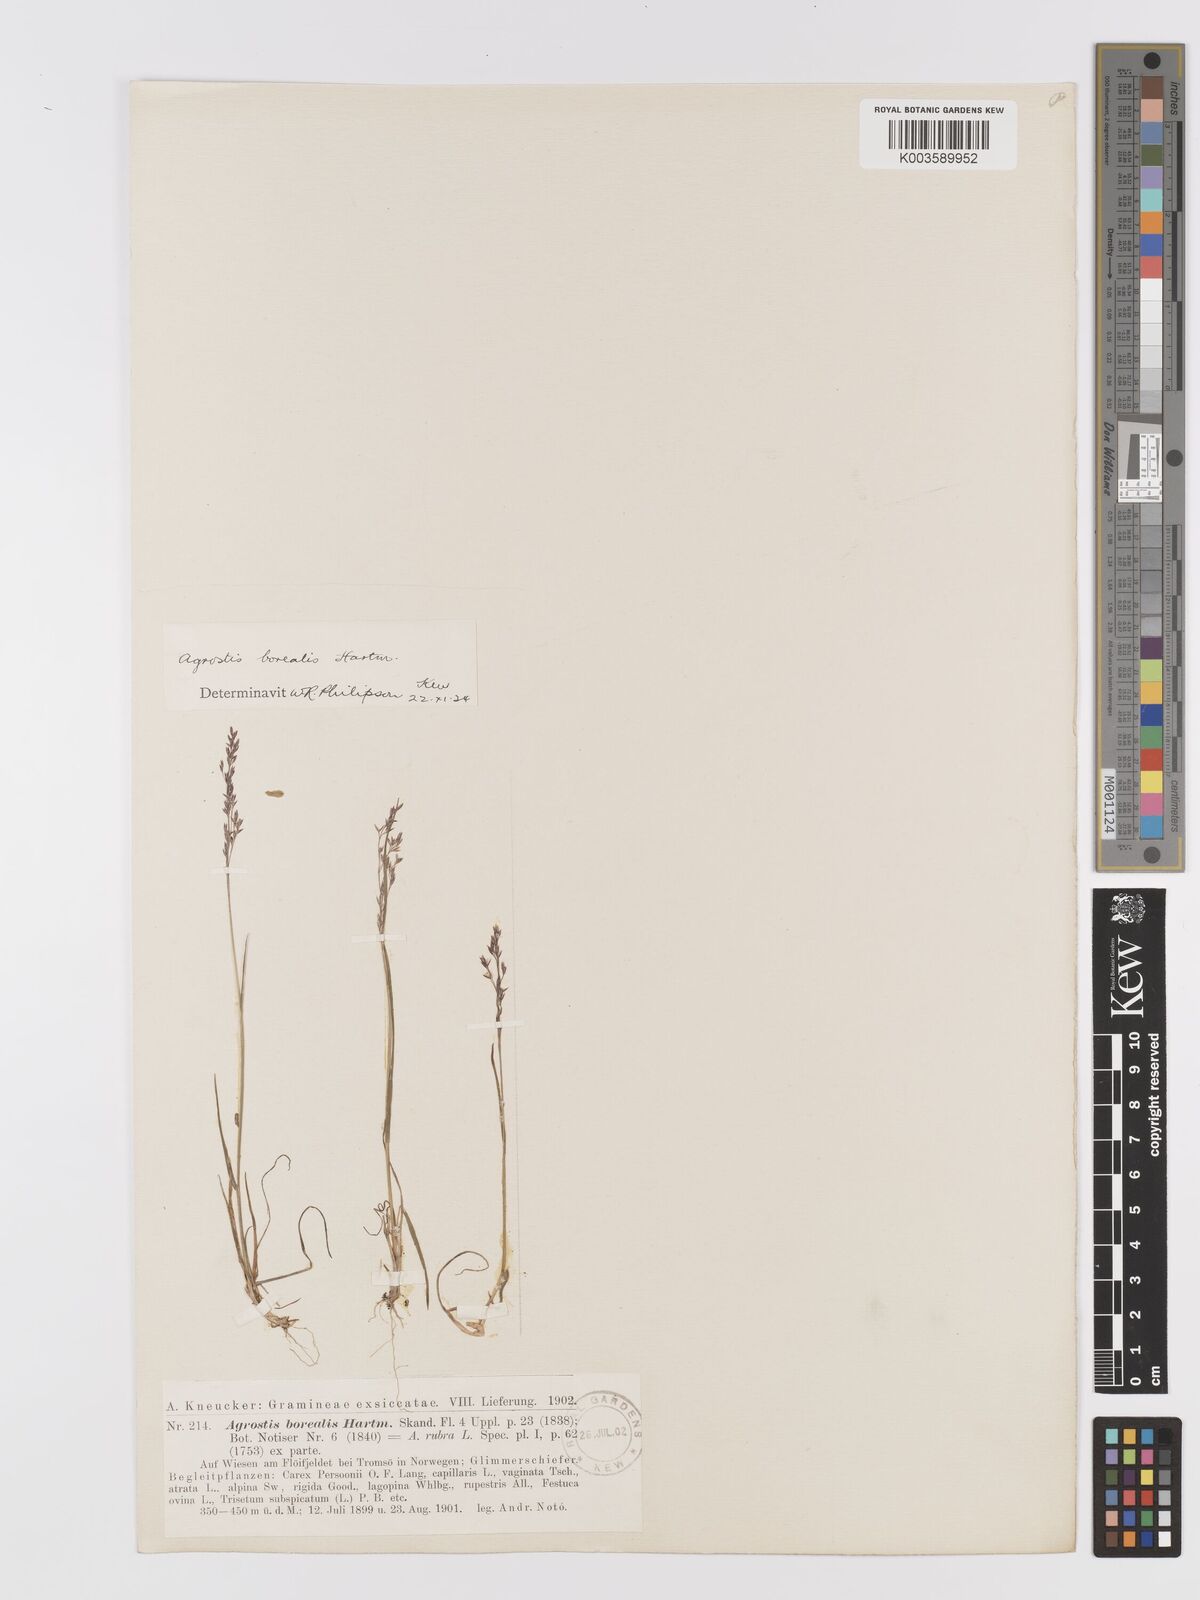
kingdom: Plantae
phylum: Tracheophyta
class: Liliopsida
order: Poales
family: Poaceae
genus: Agrostis
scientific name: Agrostis mertensii
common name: Northern bent
